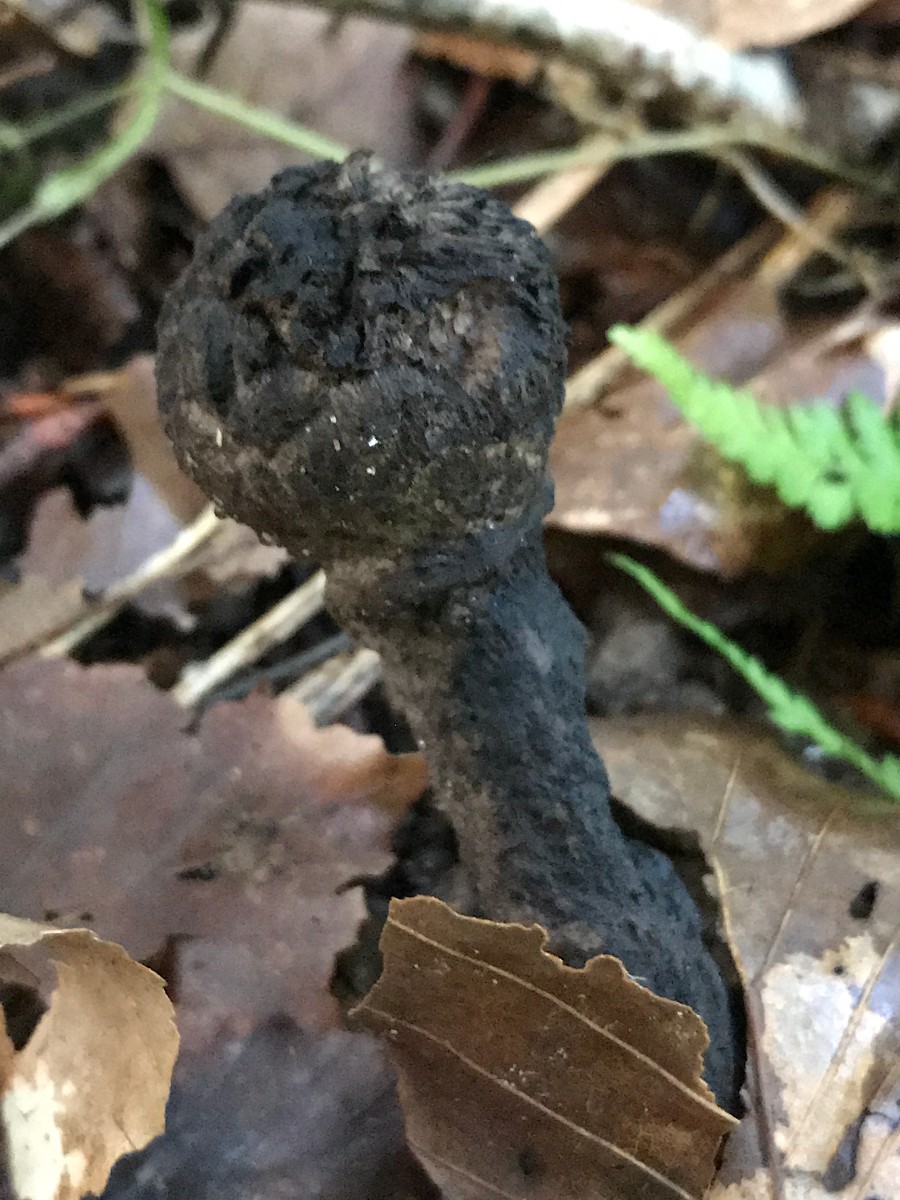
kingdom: Fungi
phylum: Basidiomycota
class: Agaricomycetes
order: Boletales
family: Boletaceae
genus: Strobilomyces
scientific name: Strobilomyces strobilaceus
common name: koglerørhat
